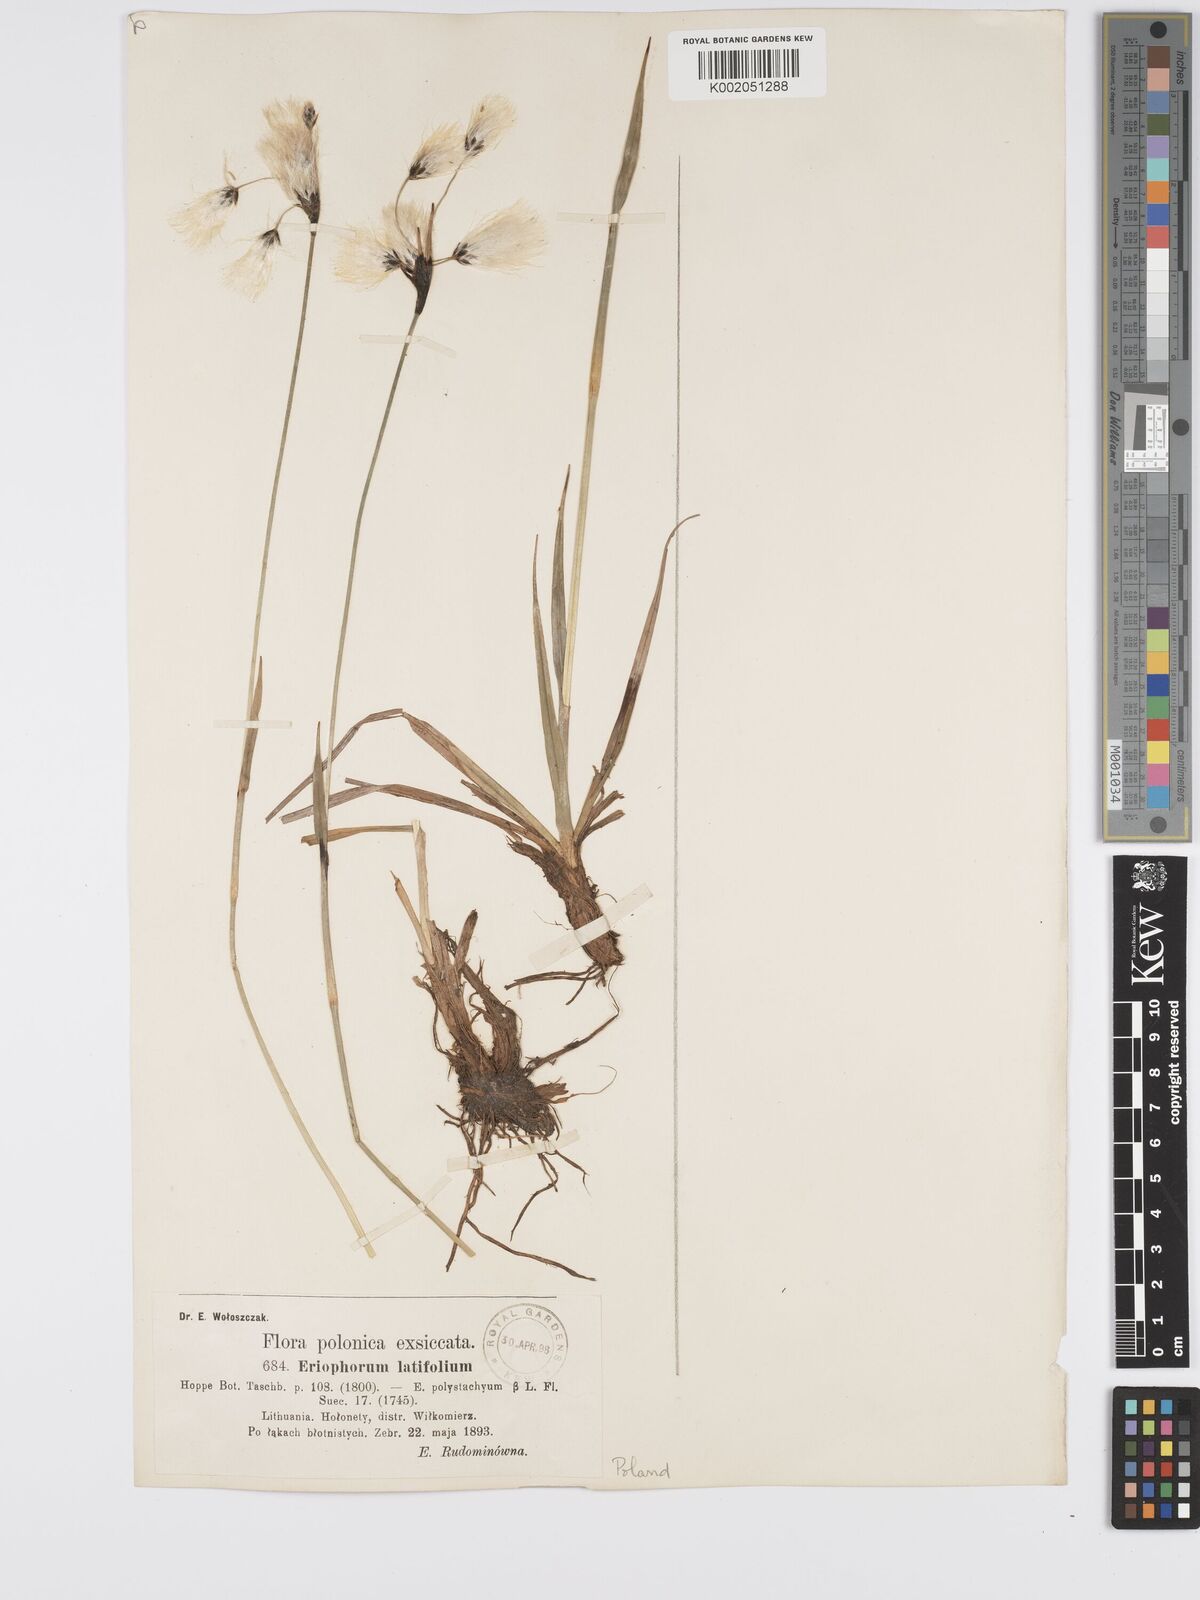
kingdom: Plantae
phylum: Tracheophyta
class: Liliopsida
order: Poales
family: Cyperaceae
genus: Eriophorum
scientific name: Eriophorum latifolium
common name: Broad-leaved cottongrass
